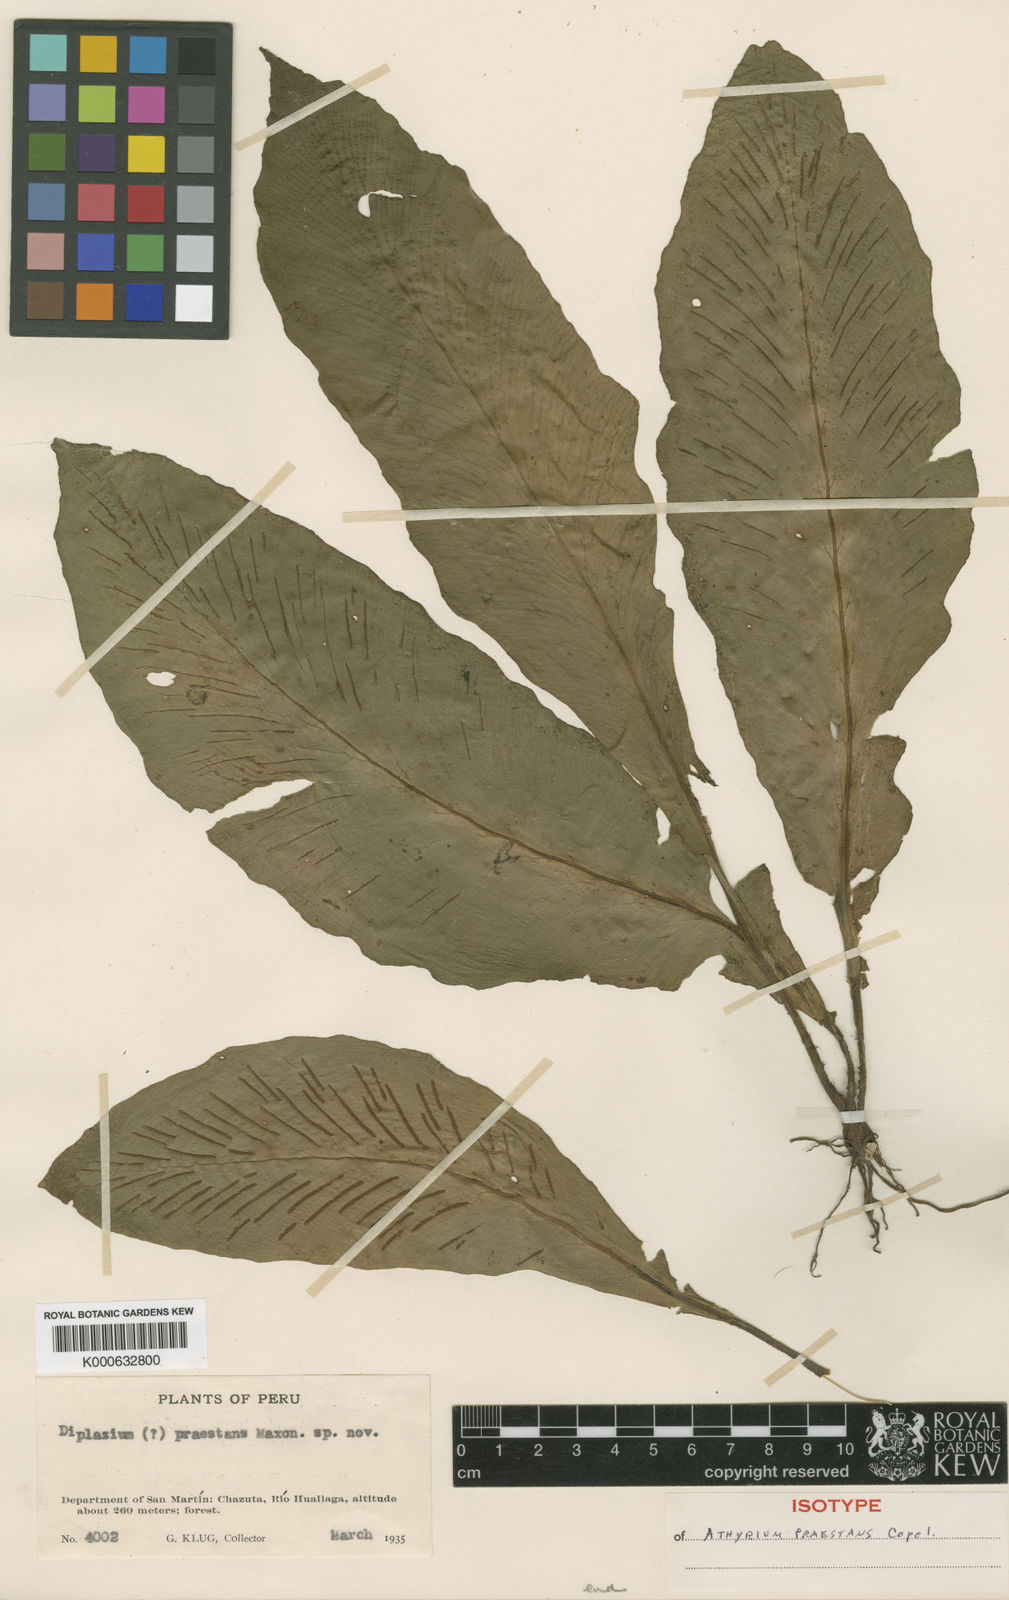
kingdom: Plantae
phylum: Tracheophyta
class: Polypodiopsida
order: Polypodiales
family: Athyriaceae
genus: Diplazium
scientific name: Diplazium
